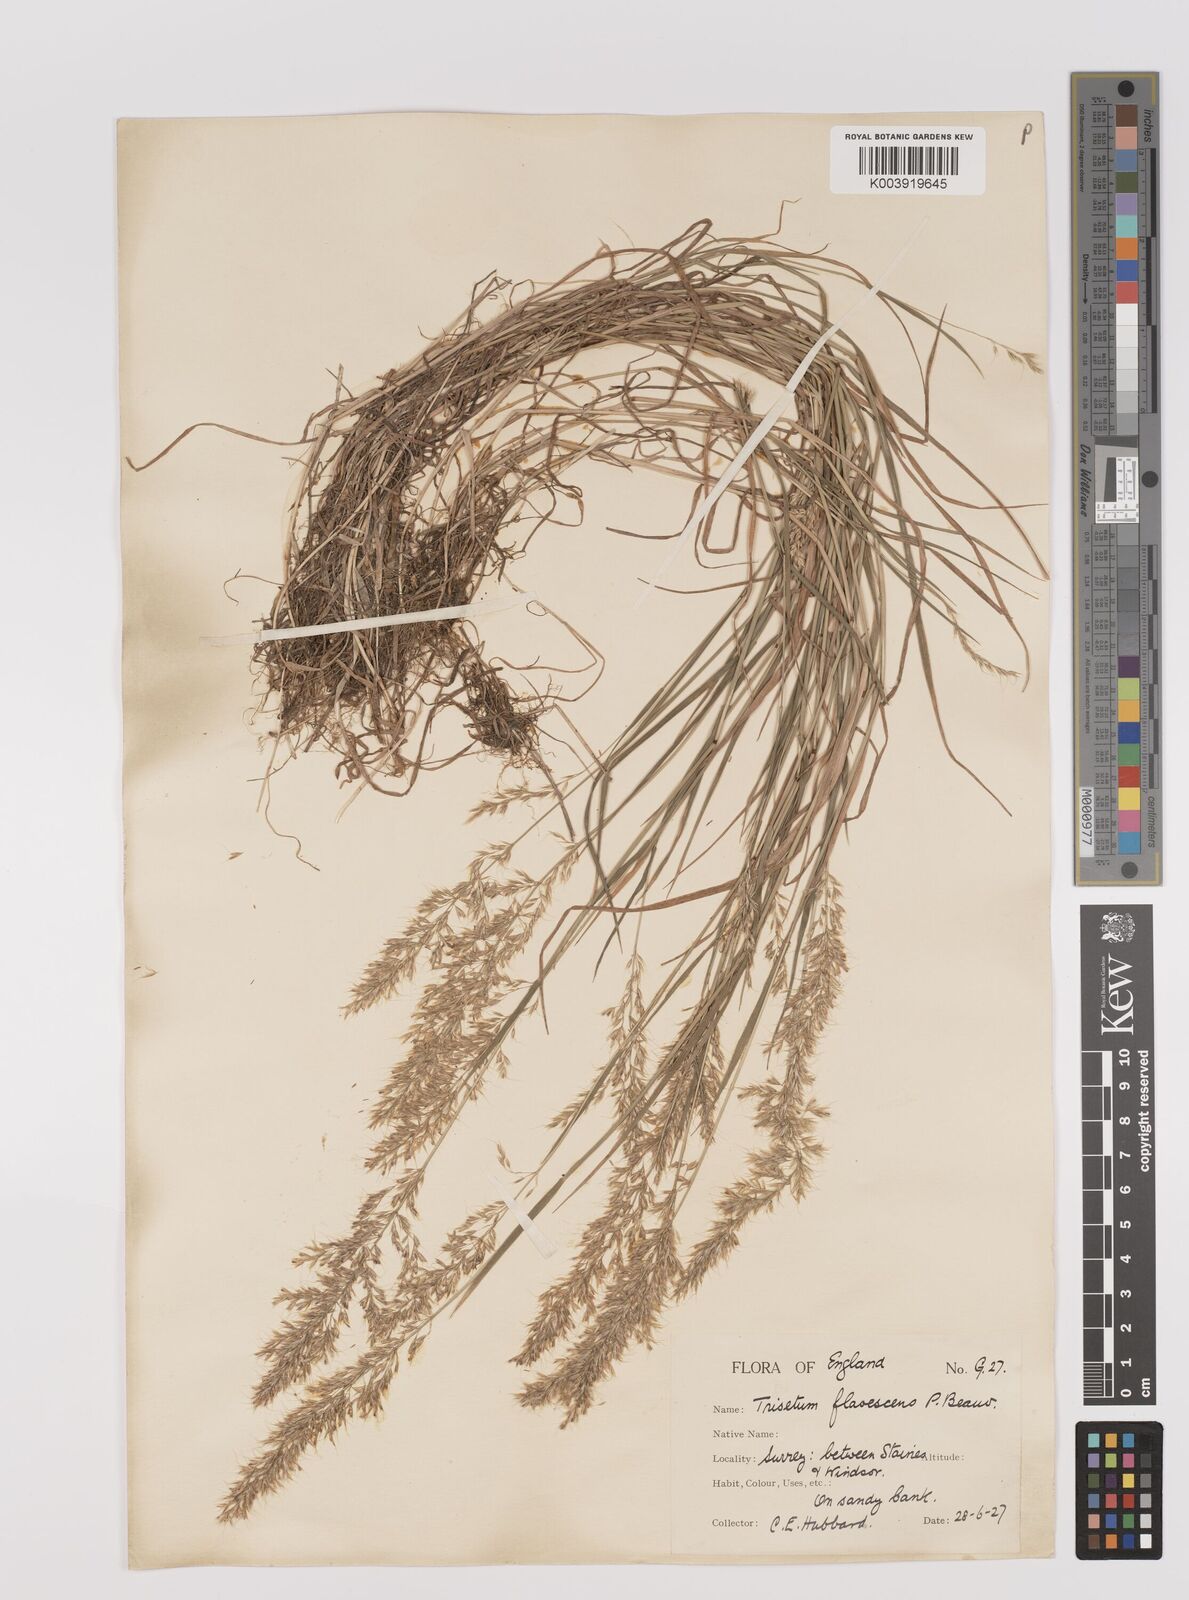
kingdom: Plantae
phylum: Tracheophyta
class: Liliopsida
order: Poales
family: Poaceae
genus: Trisetum
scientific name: Trisetum flavescens
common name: Yellow oat-grass
